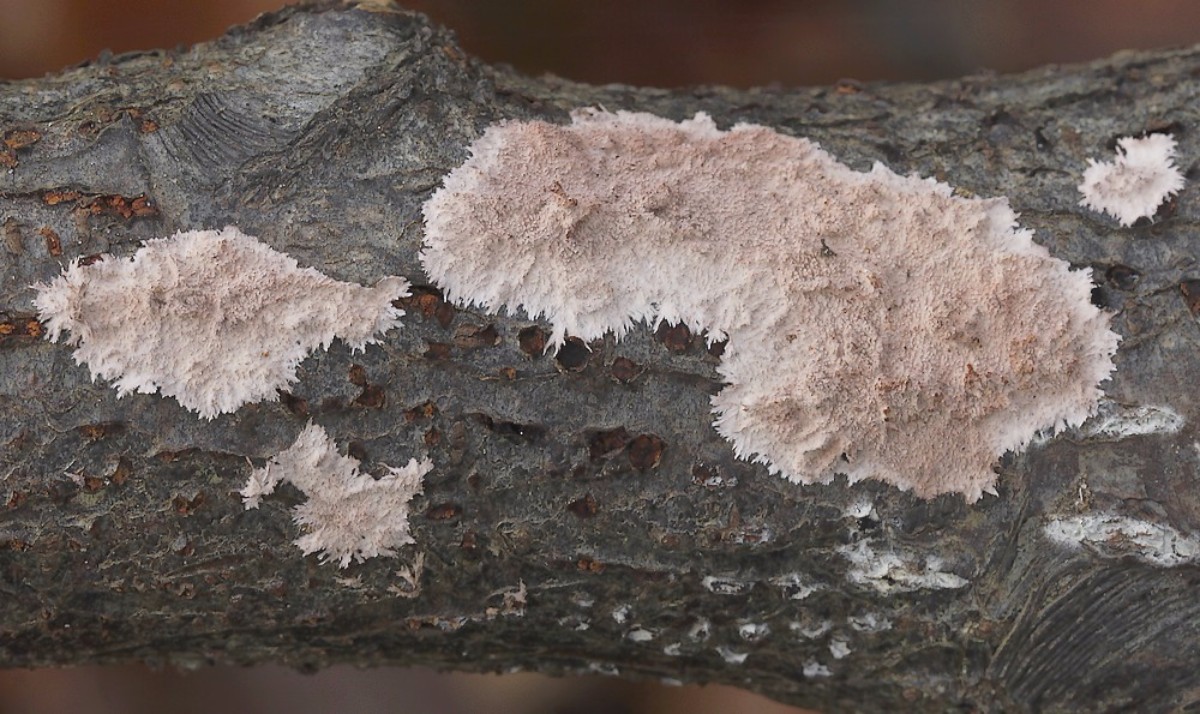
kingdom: Fungi
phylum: Basidiomycota
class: Agaricomycetes
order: Polyporales
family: Steccherinaceae
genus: Steccherinum
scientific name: Steccherinum fimbriatum
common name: trådet skønpig
